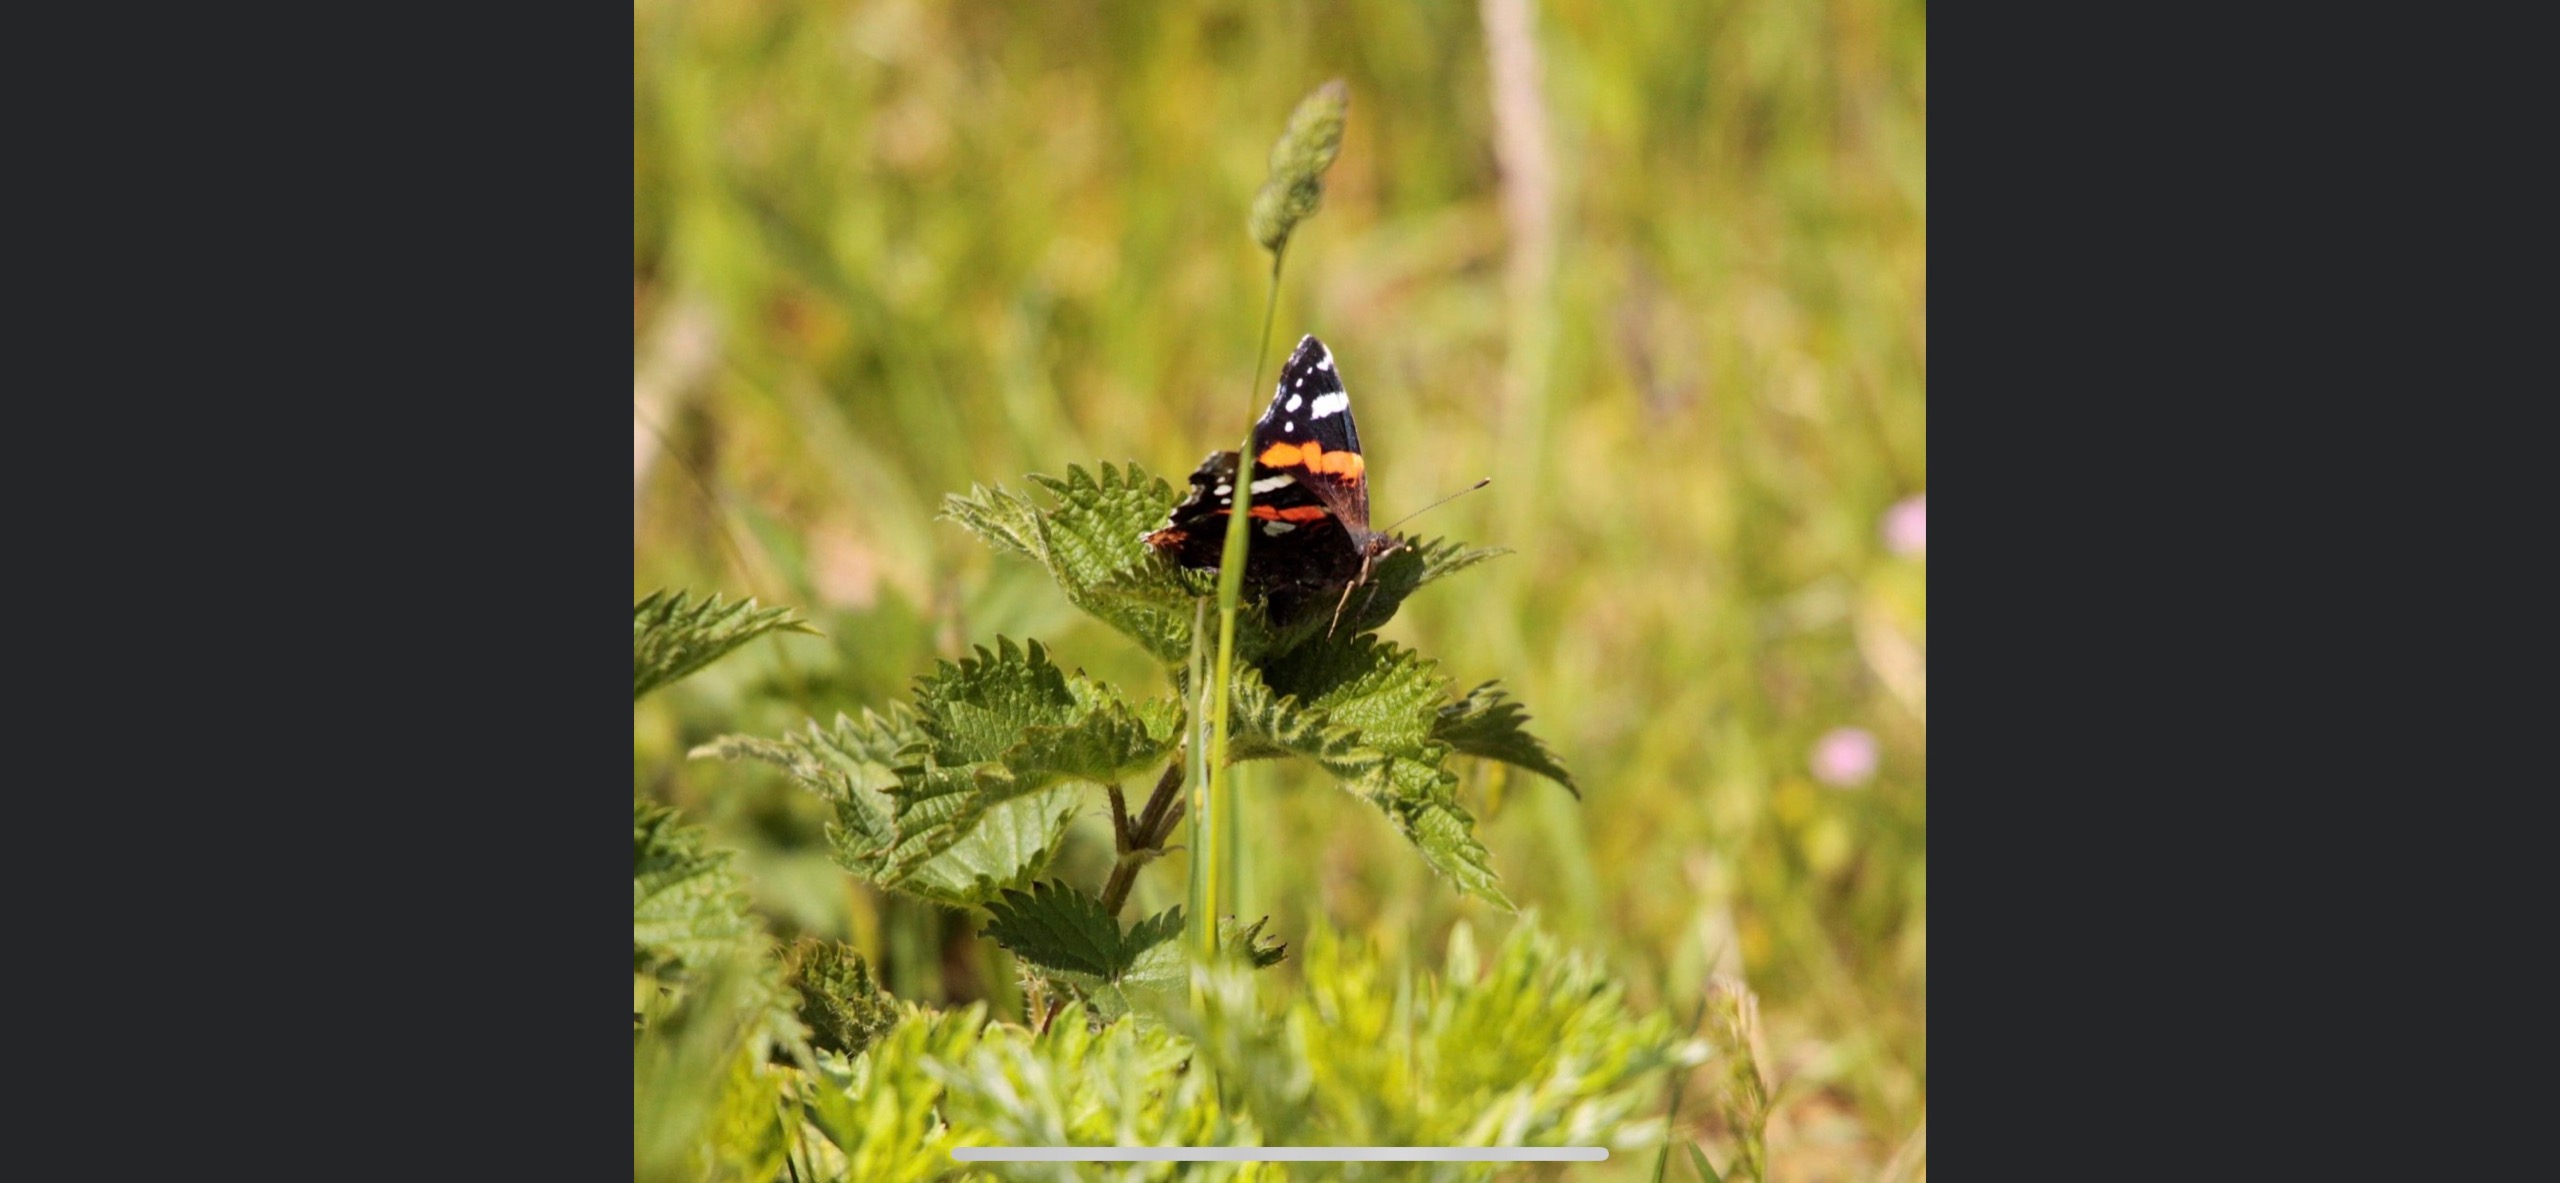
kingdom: Animalia
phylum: Arthropoda
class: Insecta
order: Lepidoptera
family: Nymphalidae
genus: Vanessa
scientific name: Vanessa atalanta
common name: Admiral
